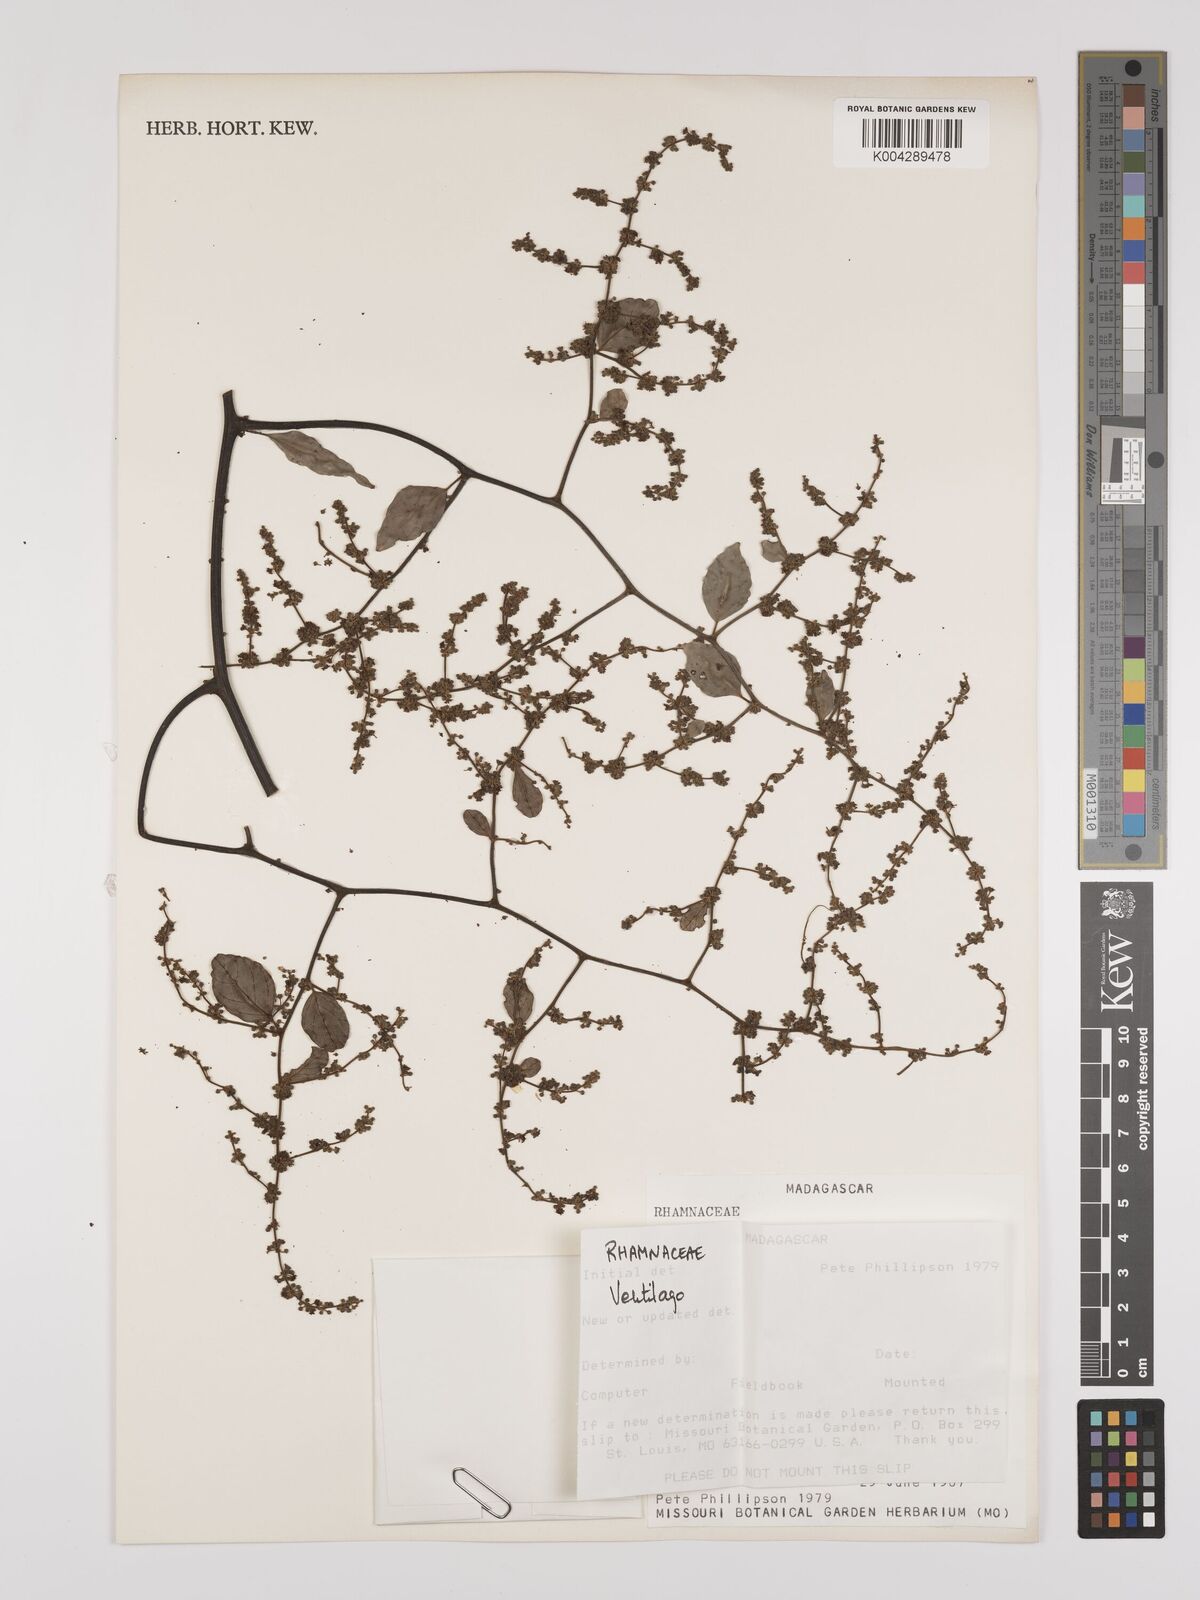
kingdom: Plantae
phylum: Tracheophyta
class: Magnoliopsida
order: Rosales
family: Rhamnaceae
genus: Ventilago
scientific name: Ventilago
